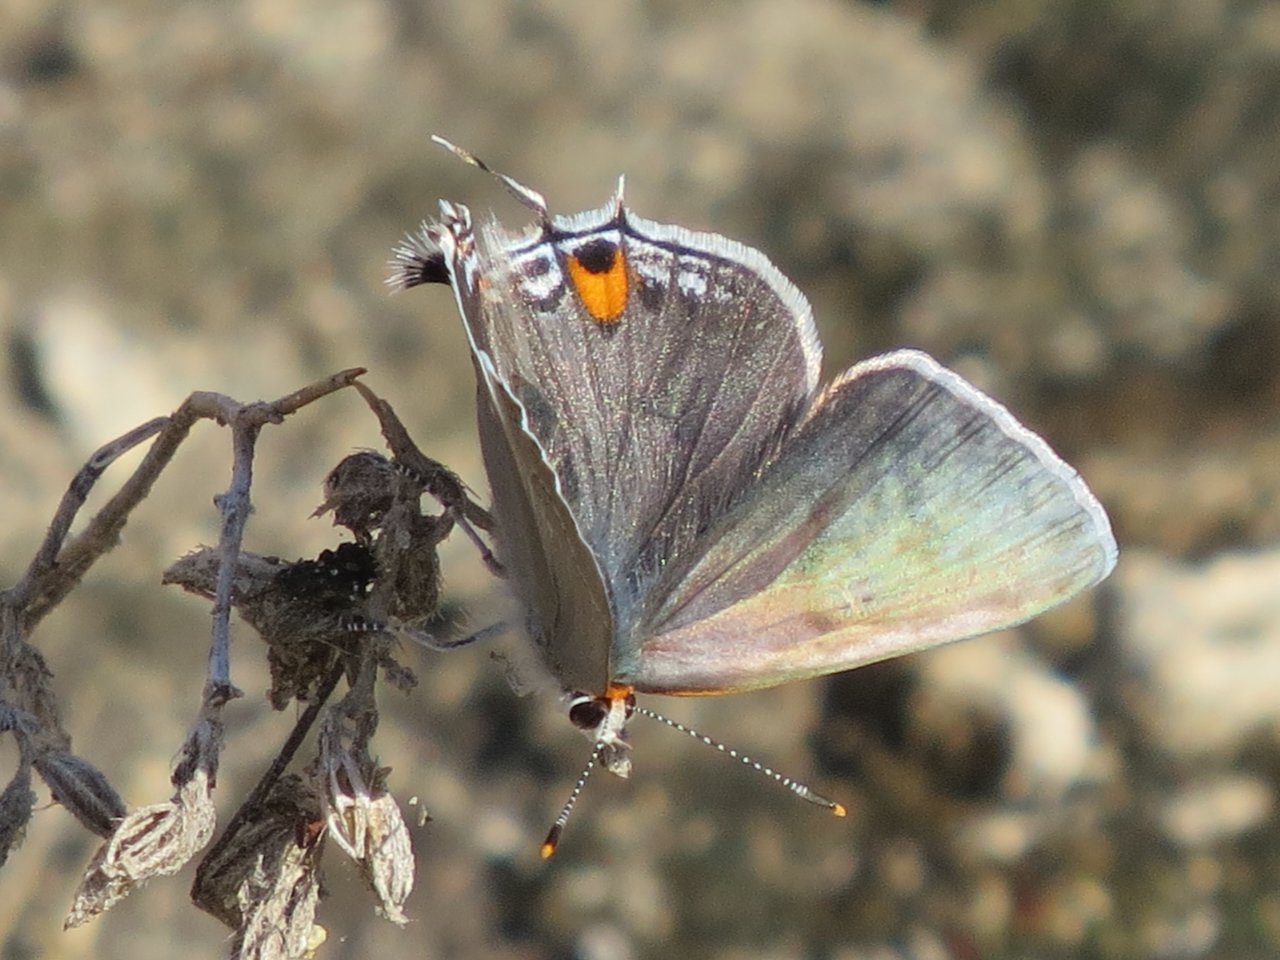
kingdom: Animalia
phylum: Arthropoda
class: Insecta
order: Lepidoptera
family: Lycaenidae
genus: Strymon
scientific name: Strymon melinus
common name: Gray Hairstreak
